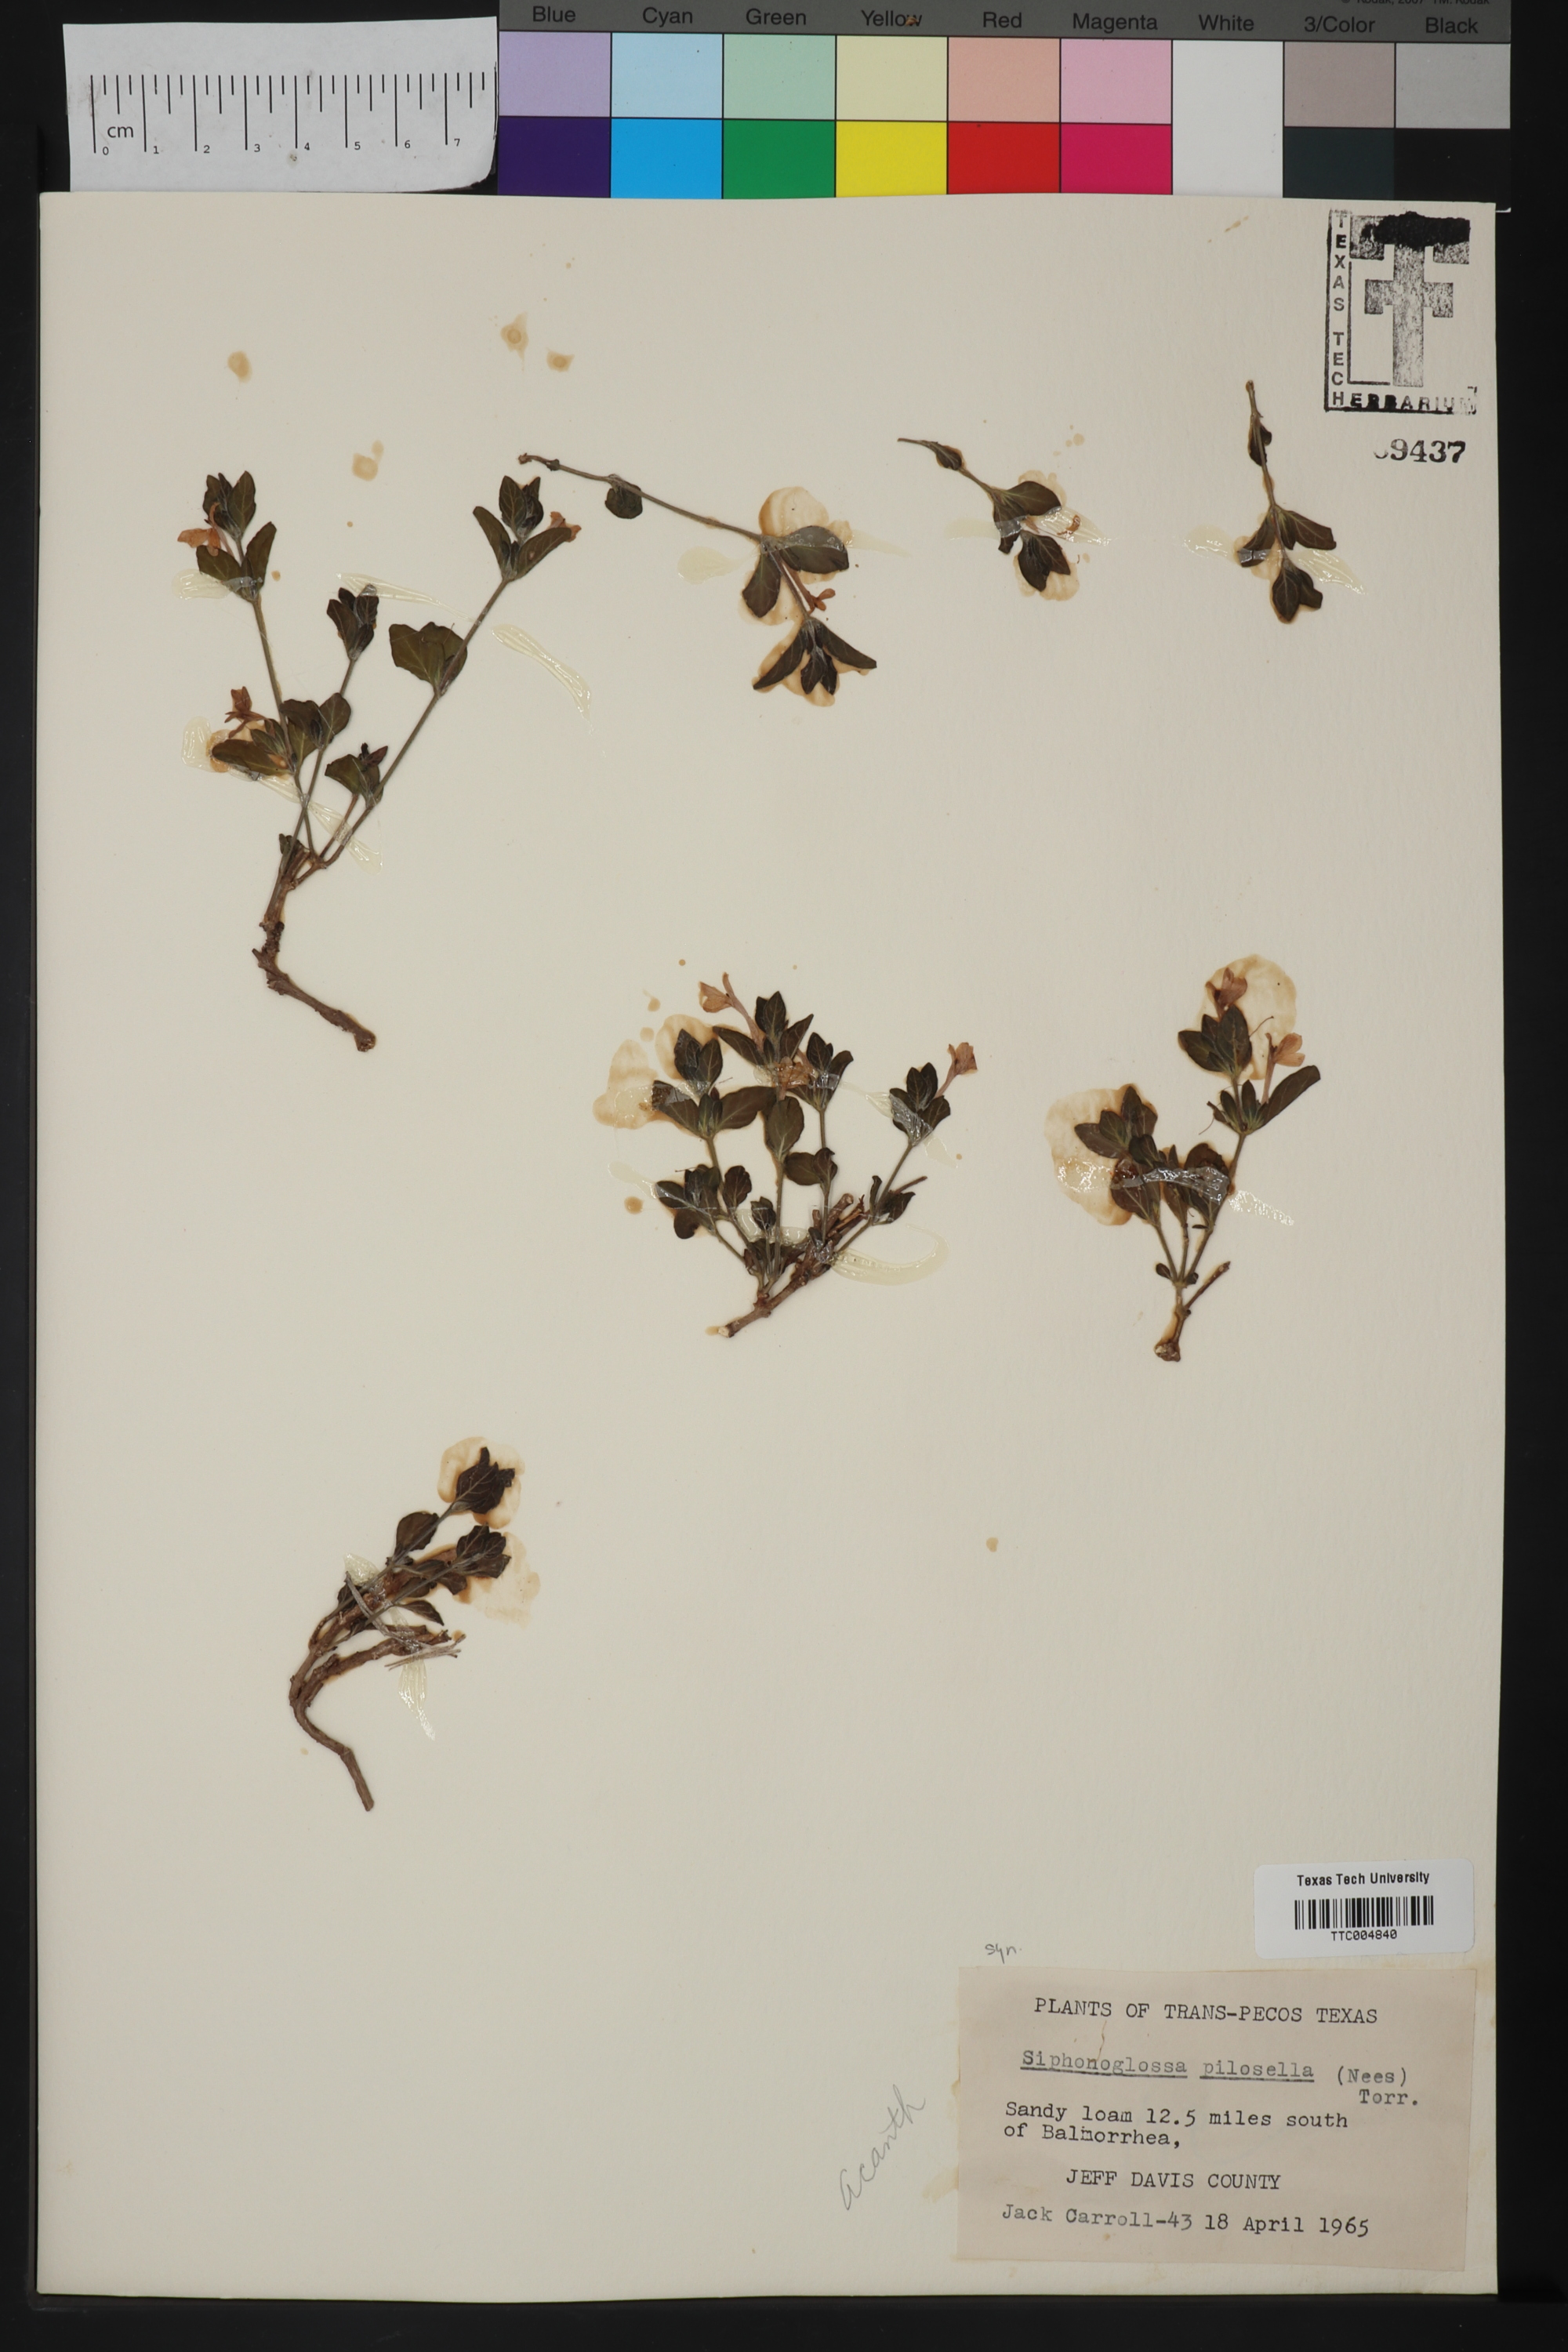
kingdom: Plantae
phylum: Tracheophyta
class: Magnoliopsida
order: Lamiales
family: Acanthaceae
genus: Justicia
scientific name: Justicia pilosella
